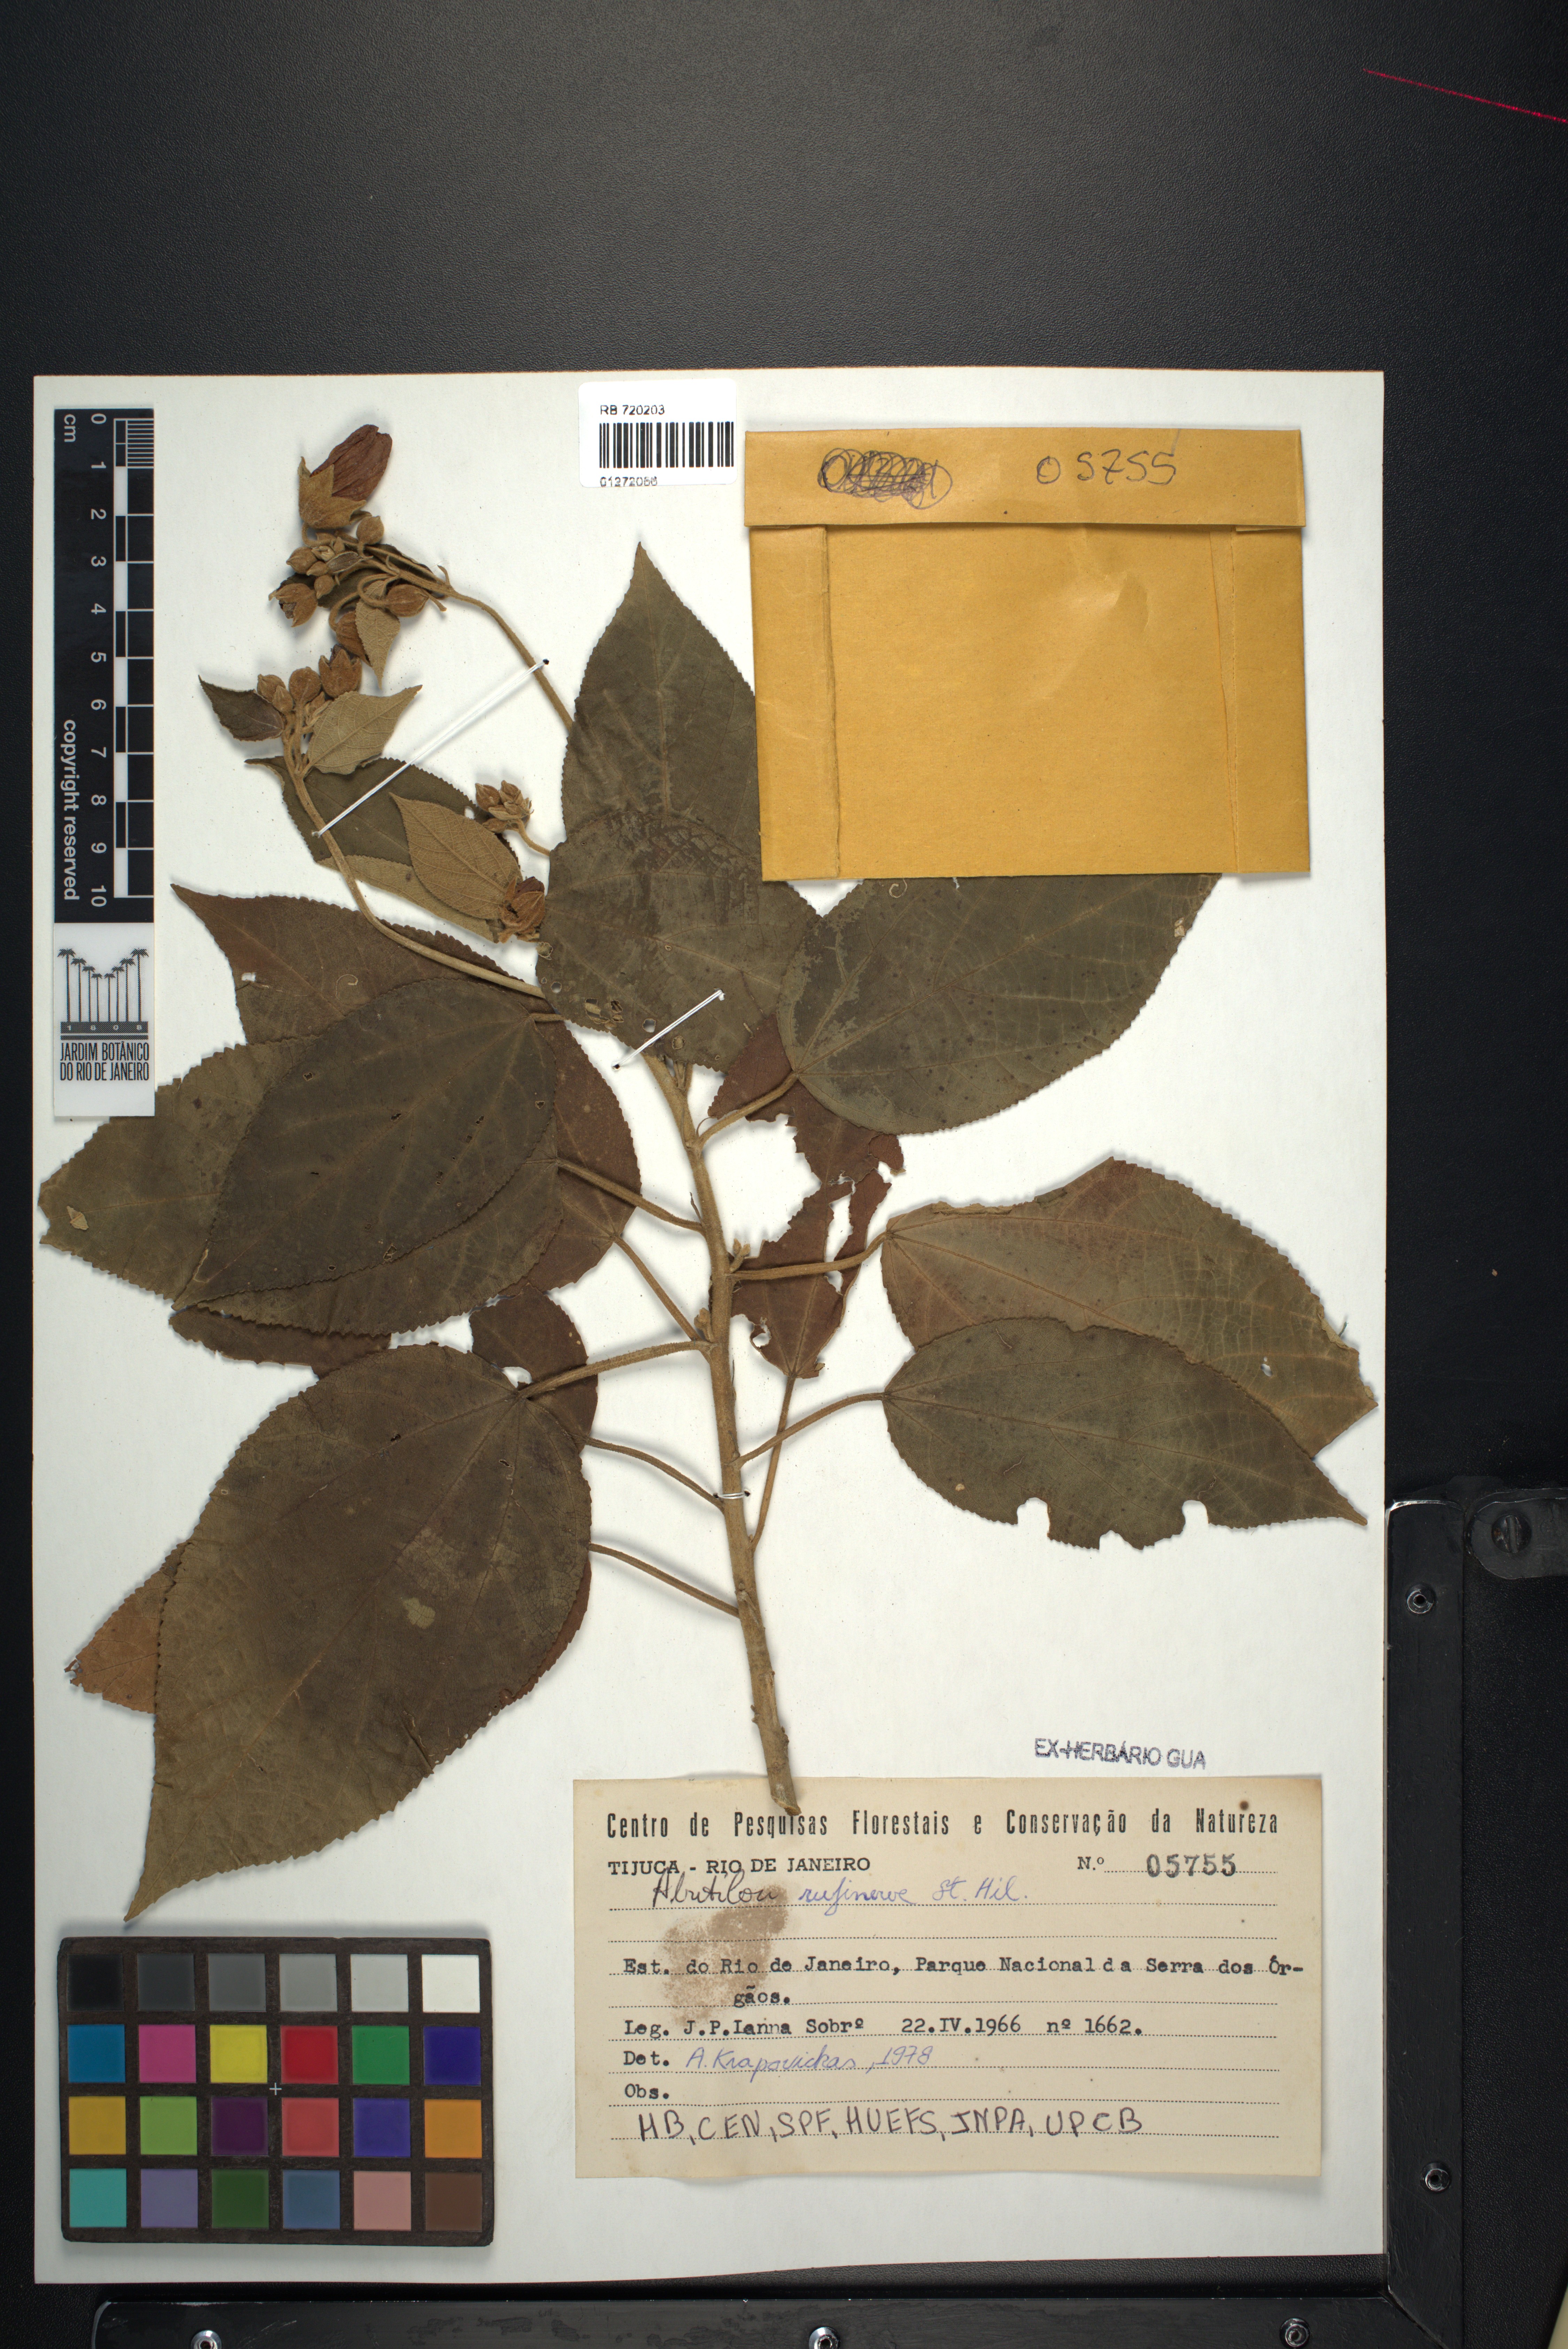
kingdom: Plantae
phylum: Tracheophyta
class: Magnoliopsida
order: Malvales
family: Malvaceae
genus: Callianthe
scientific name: Callianthe rufinerva
